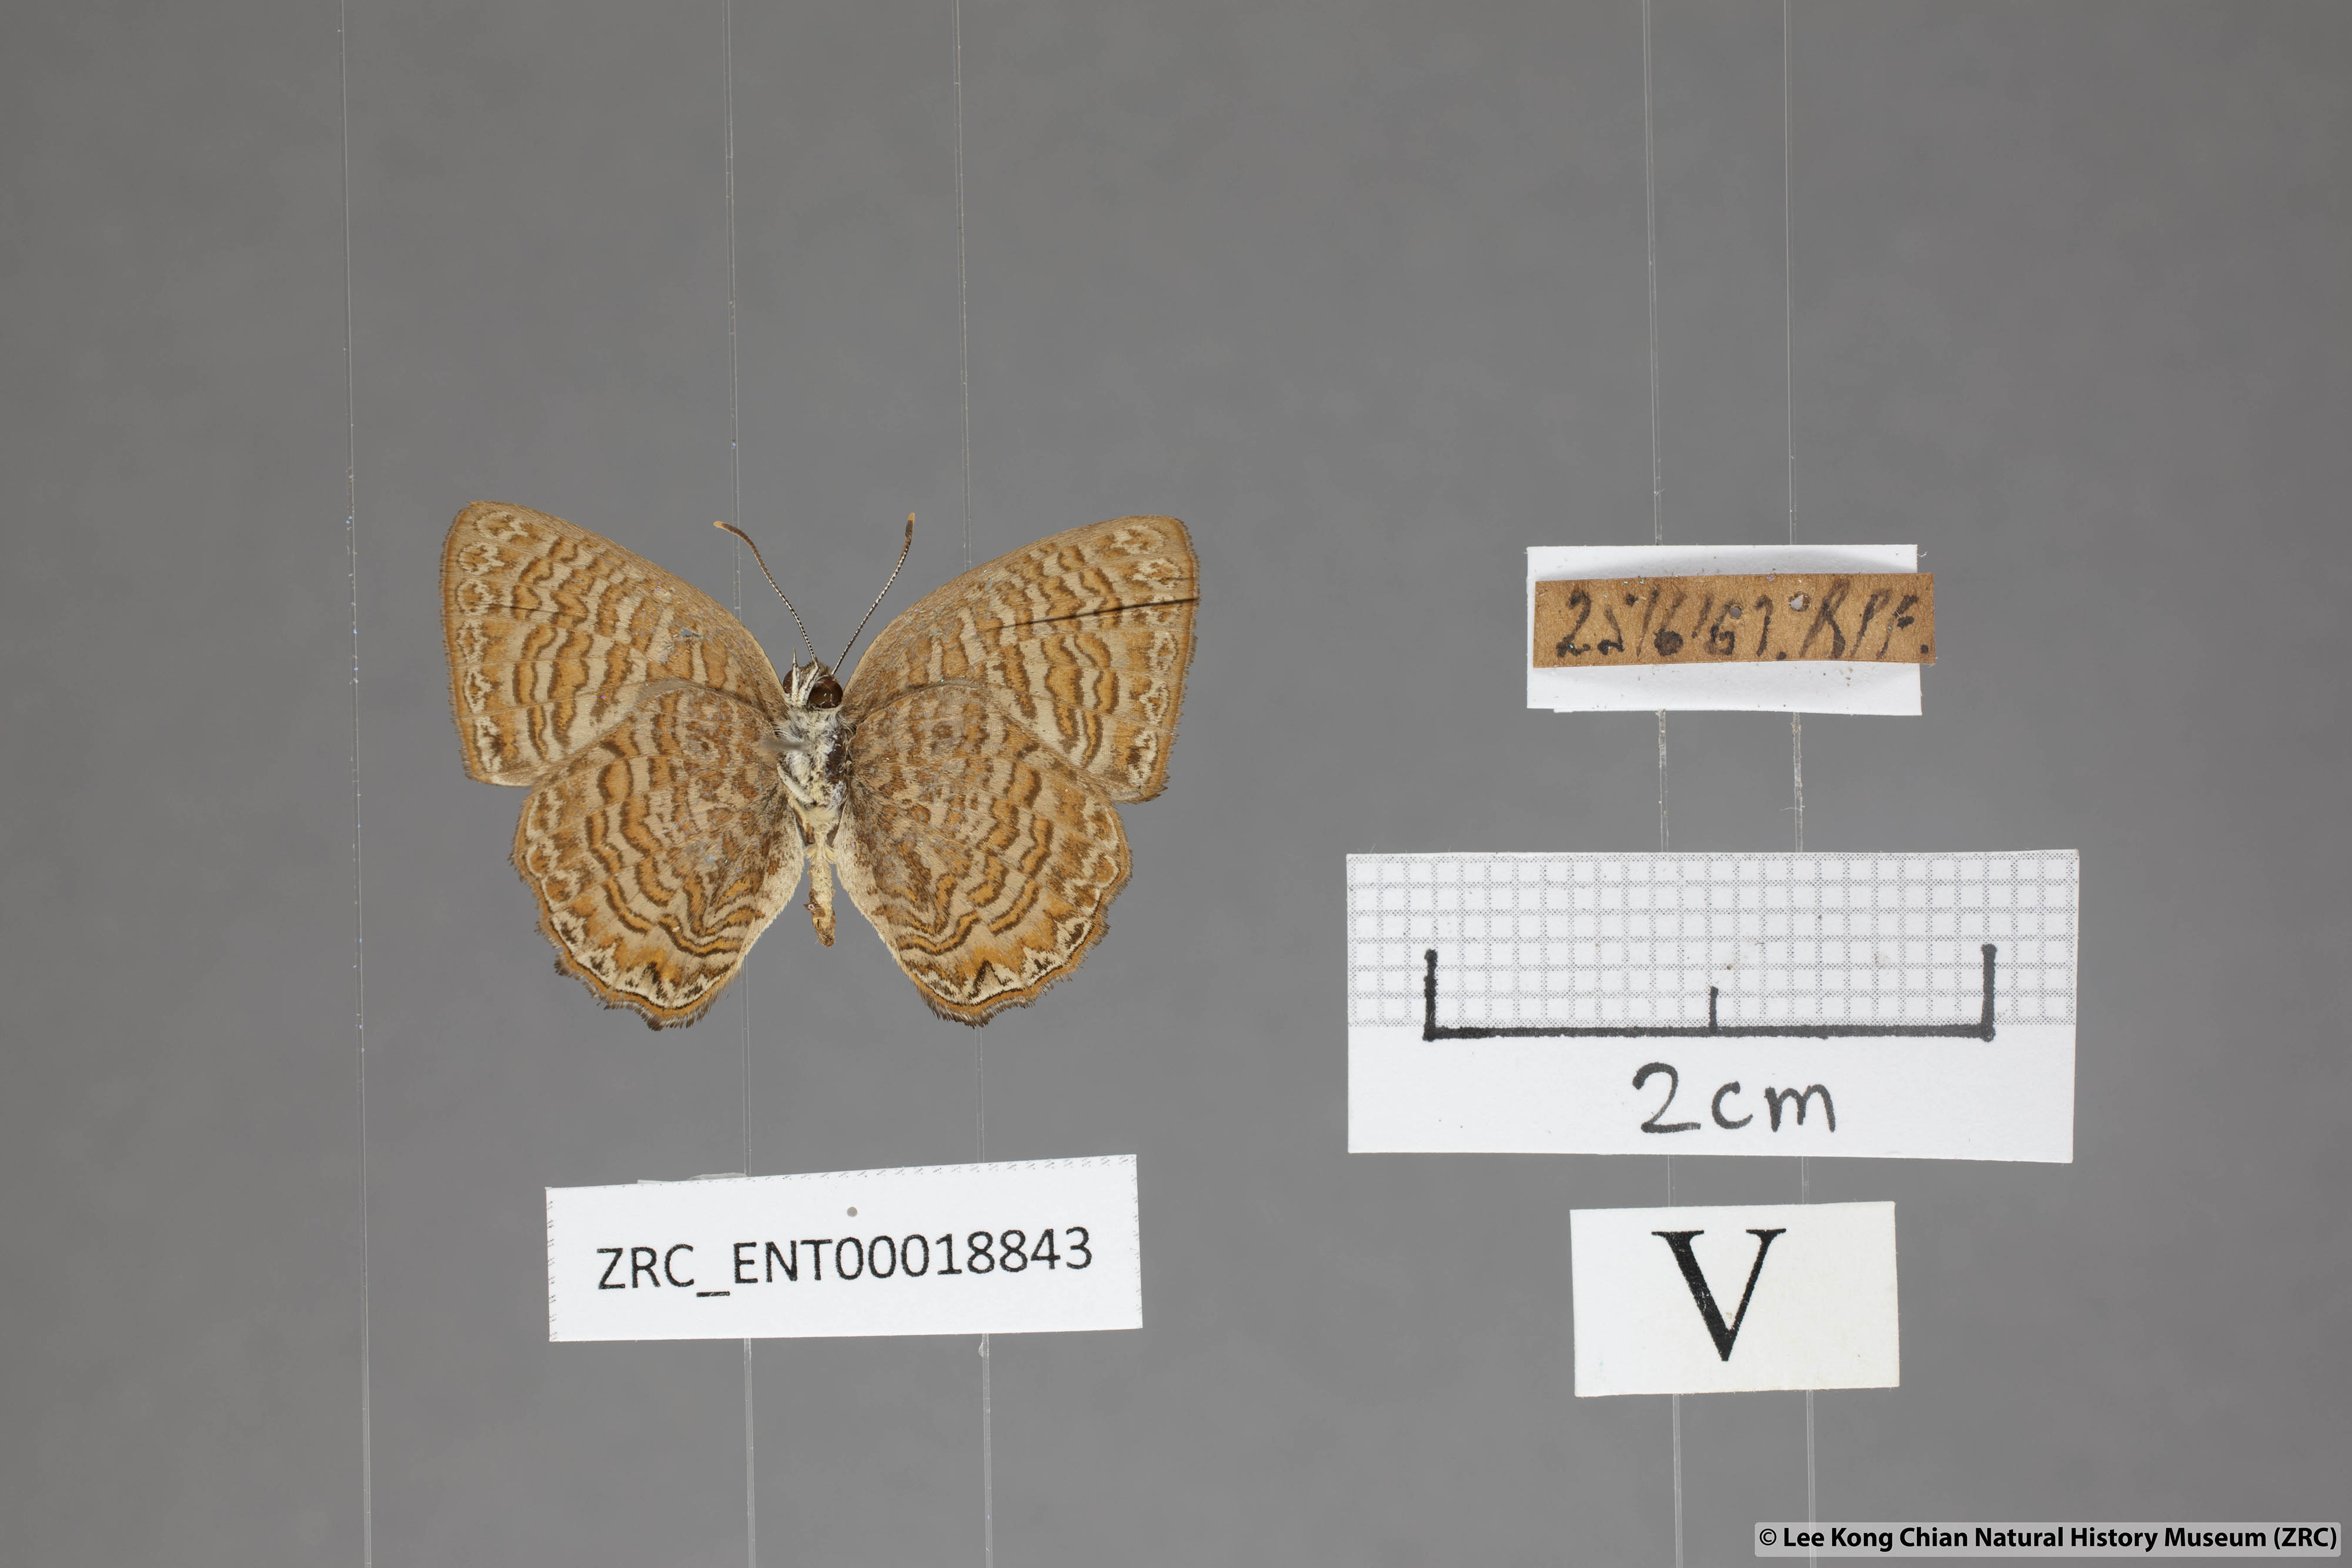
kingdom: Animalia
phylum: Arthropoda
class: Insecta
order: Lepidoptera
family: Lycaenidae
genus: Poritia
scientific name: Poritia sumatrae
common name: Sumatran gem
